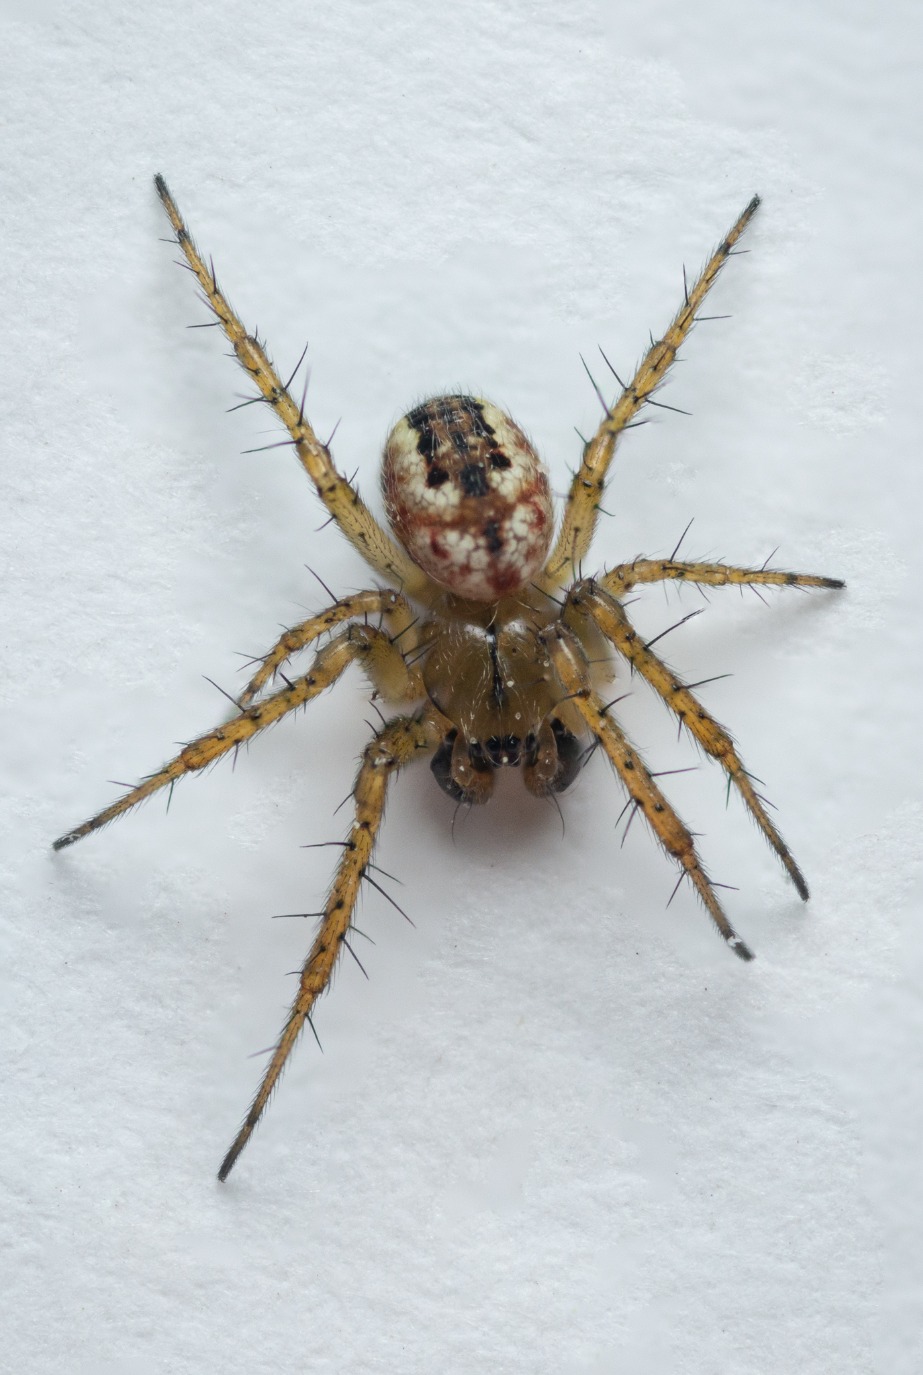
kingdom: Animalia
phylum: Arthropoda
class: Arachnida
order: Araneae
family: Araneidae
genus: Mangora
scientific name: Mangora acalypha
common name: Sortstribet hedehjulspinder
